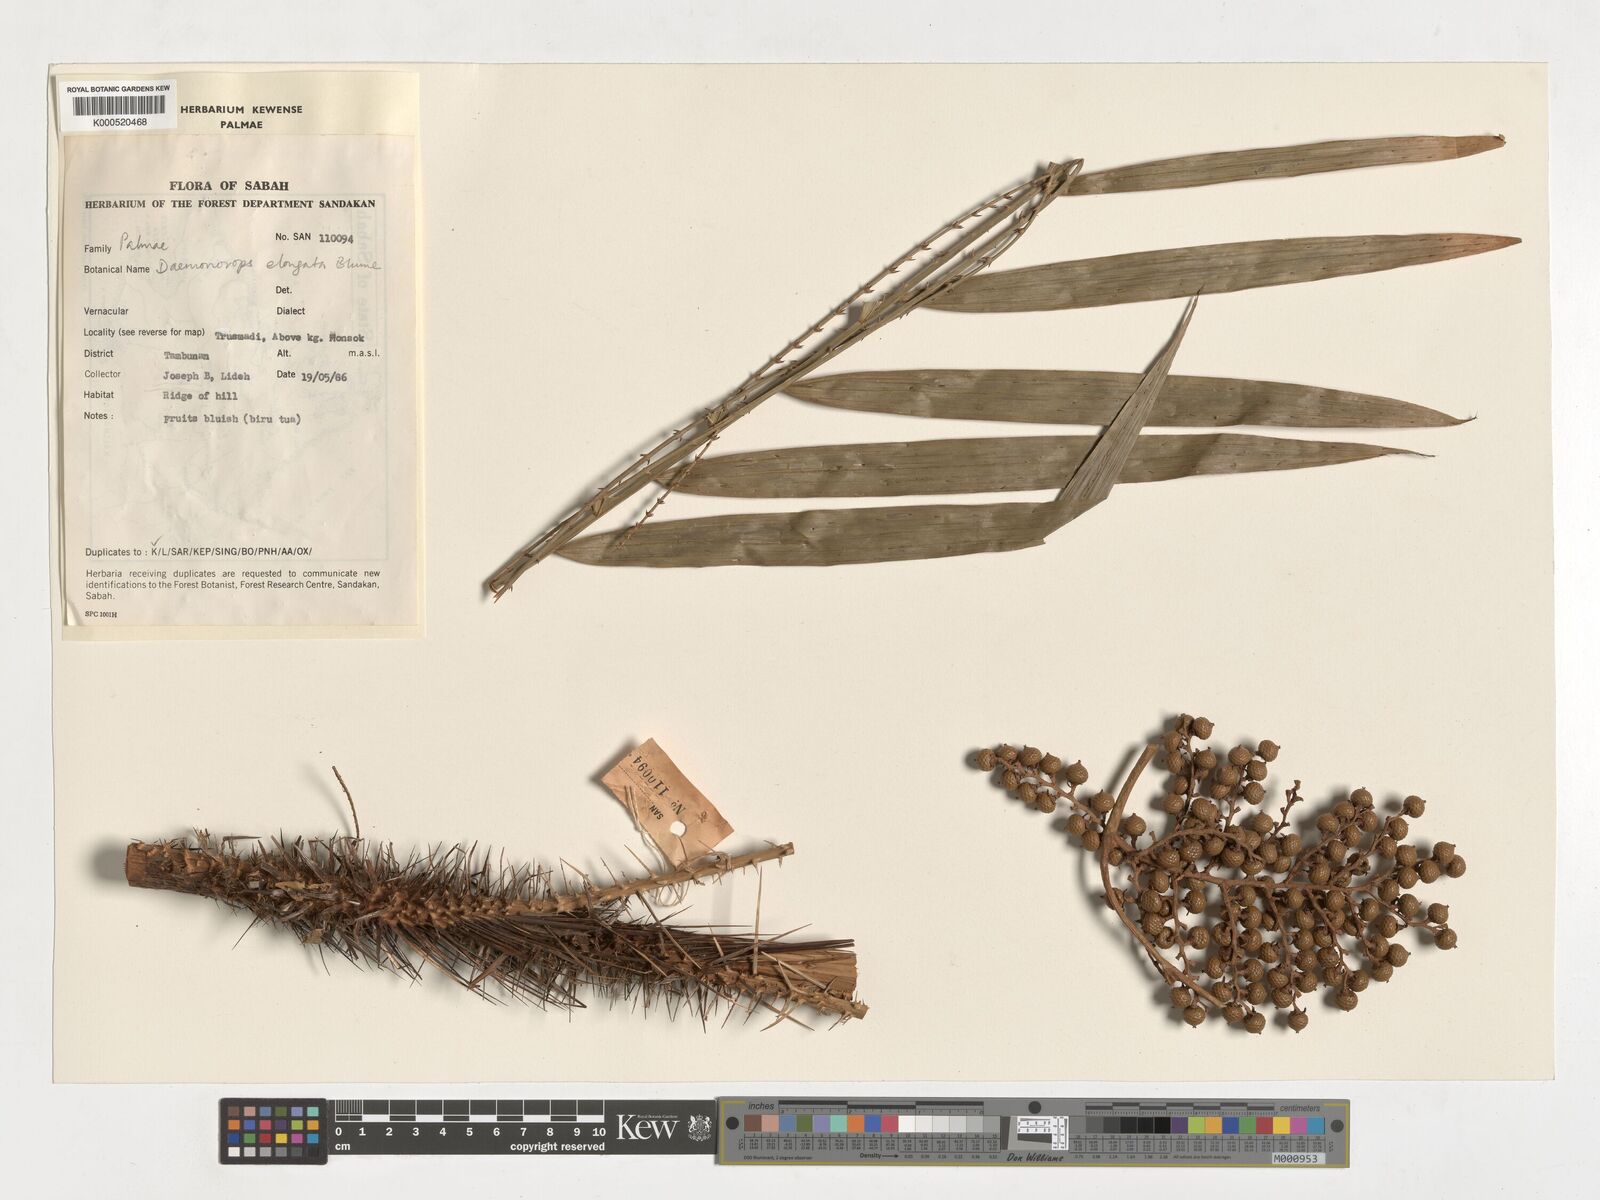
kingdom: Plantae
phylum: Tracheophyta
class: Liliopsida
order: Arecales
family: Arecaceae
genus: Calamus
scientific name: Calamus oblongus
